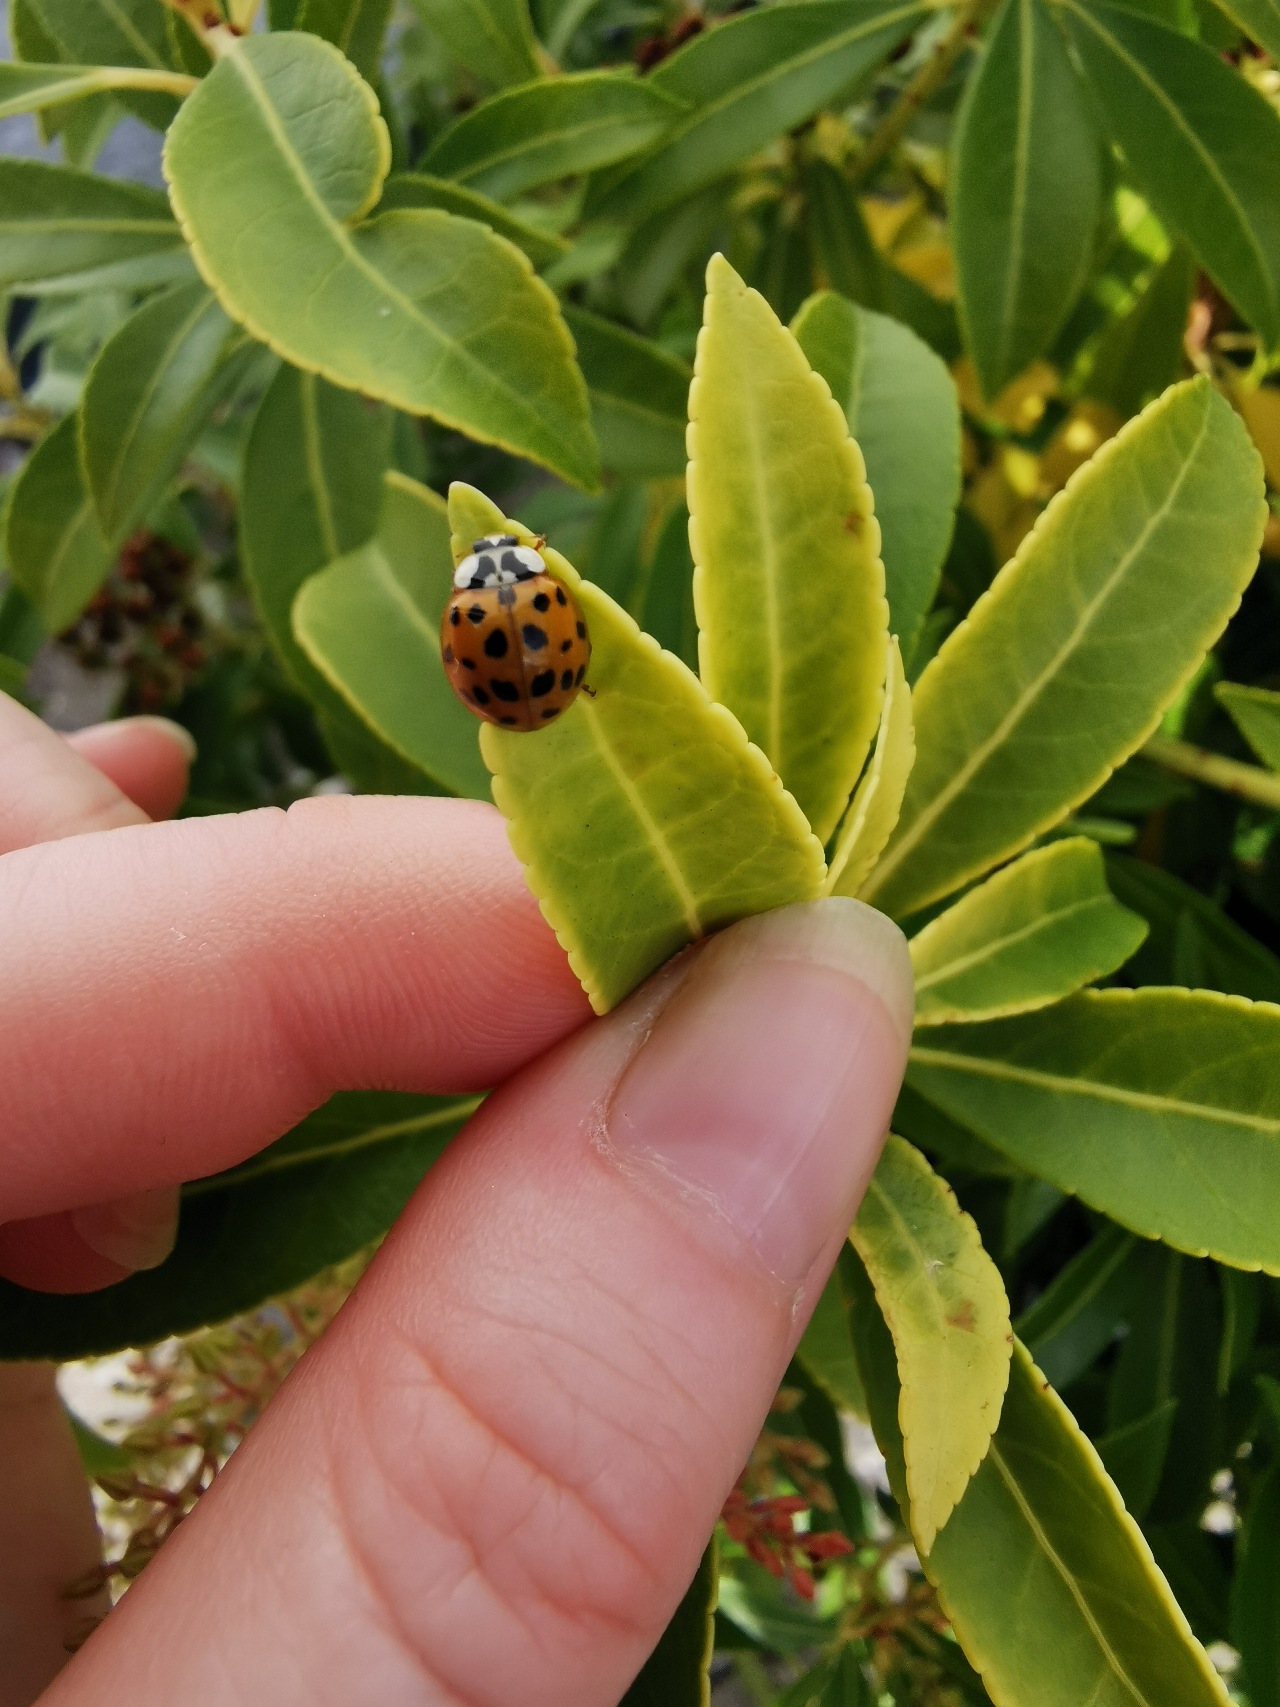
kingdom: Animalia
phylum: Arthropoda
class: Insecta
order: Coleoptera
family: Coccinellidae
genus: Harmonia
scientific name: Harmonia axyridis
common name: Harlekinmariehøne
